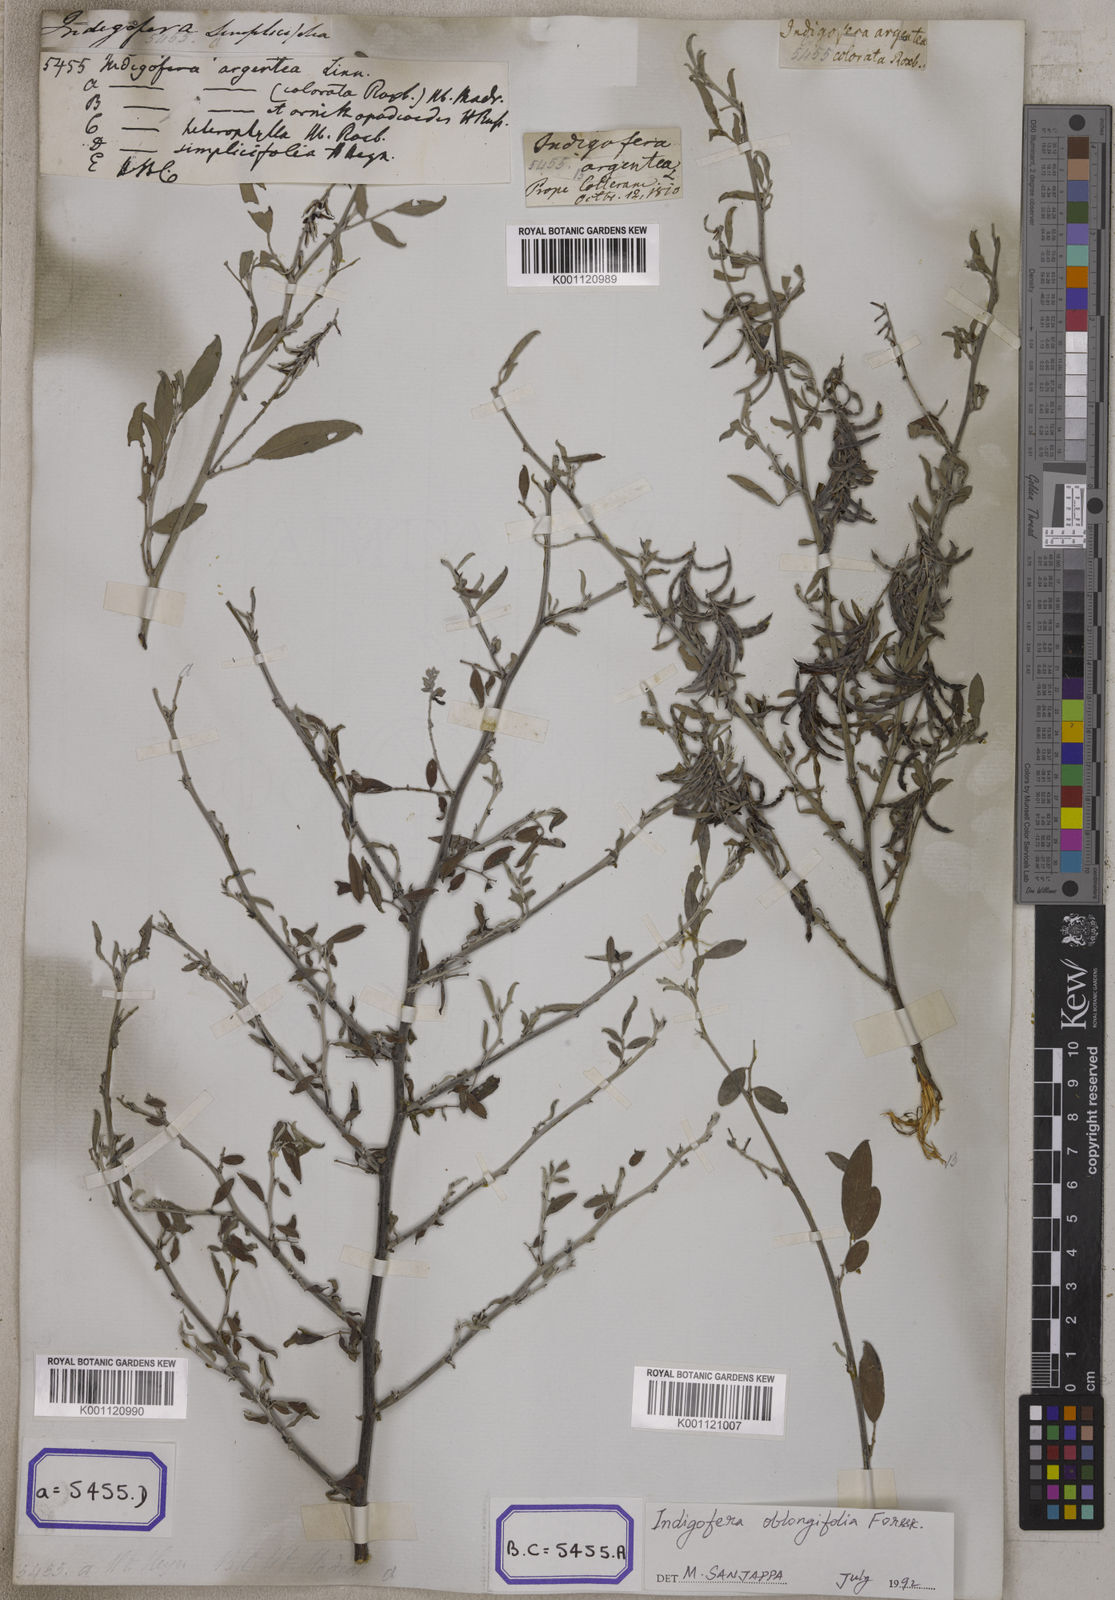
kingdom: Plantae
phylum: Tracheophyta
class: Magnoliopsida
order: Fabales
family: Fabaceae
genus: Indigofera
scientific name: Indigofera
